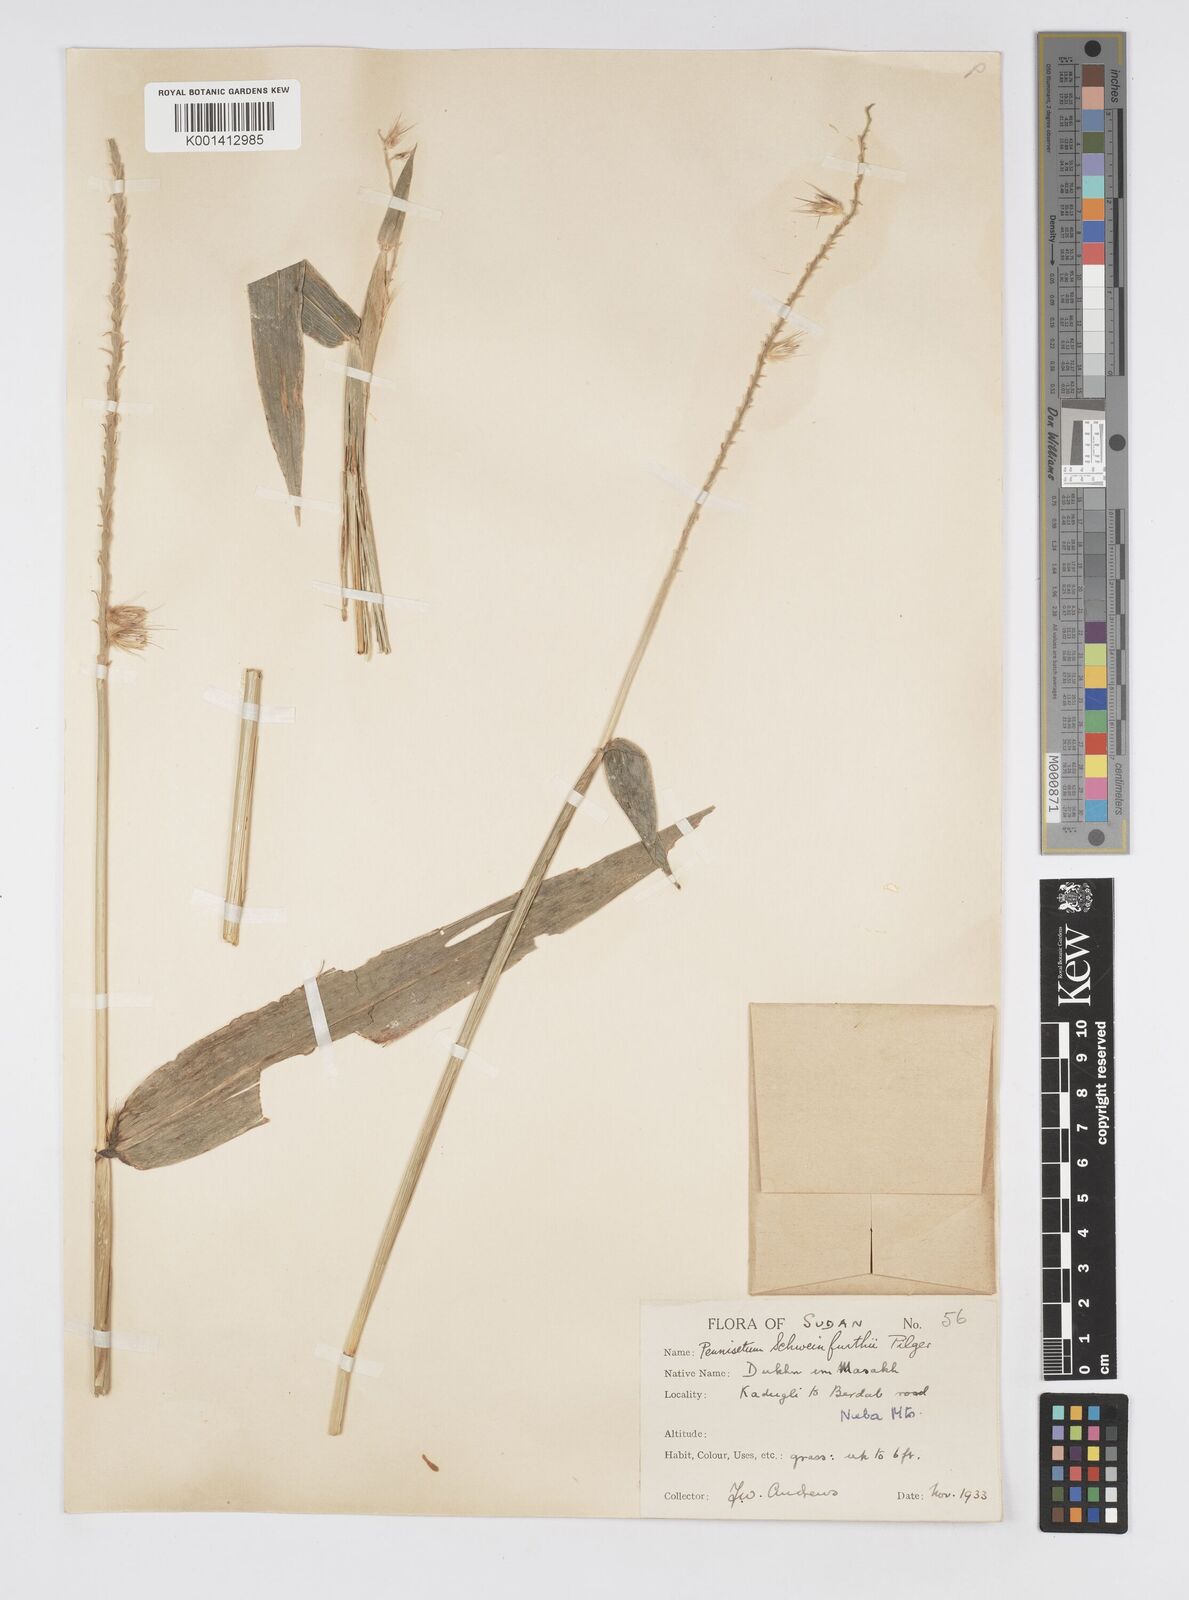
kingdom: Plantae
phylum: Tracheophyta
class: Liliopsida
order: Poales
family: Poaceae
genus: Cenchrus
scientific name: Cenchrus schweinfurthii
